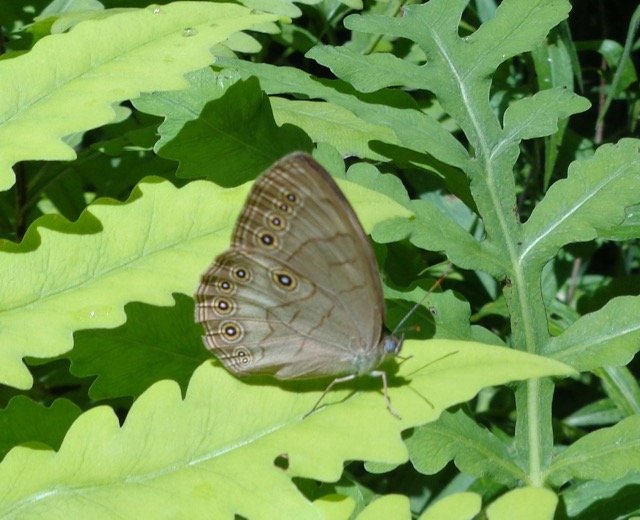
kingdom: Animalia
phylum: Arthropoda
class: Insecta
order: Lepidoptera
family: Nymphalidae
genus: Lethe
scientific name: Lethe eurydice
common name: Appalachian Eyed Brown
